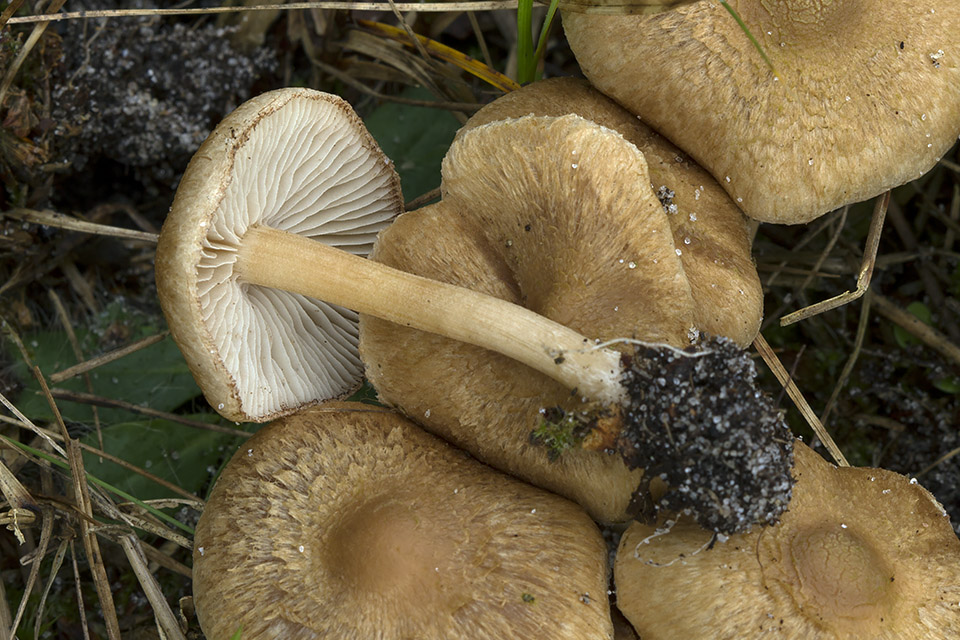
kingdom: Fungi
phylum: Basidiomycota
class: Agaricomycetes
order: Agaricales
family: Inocybaceae
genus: Inocybe
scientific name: Inocybe sindonia
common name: bleg trævlhat
